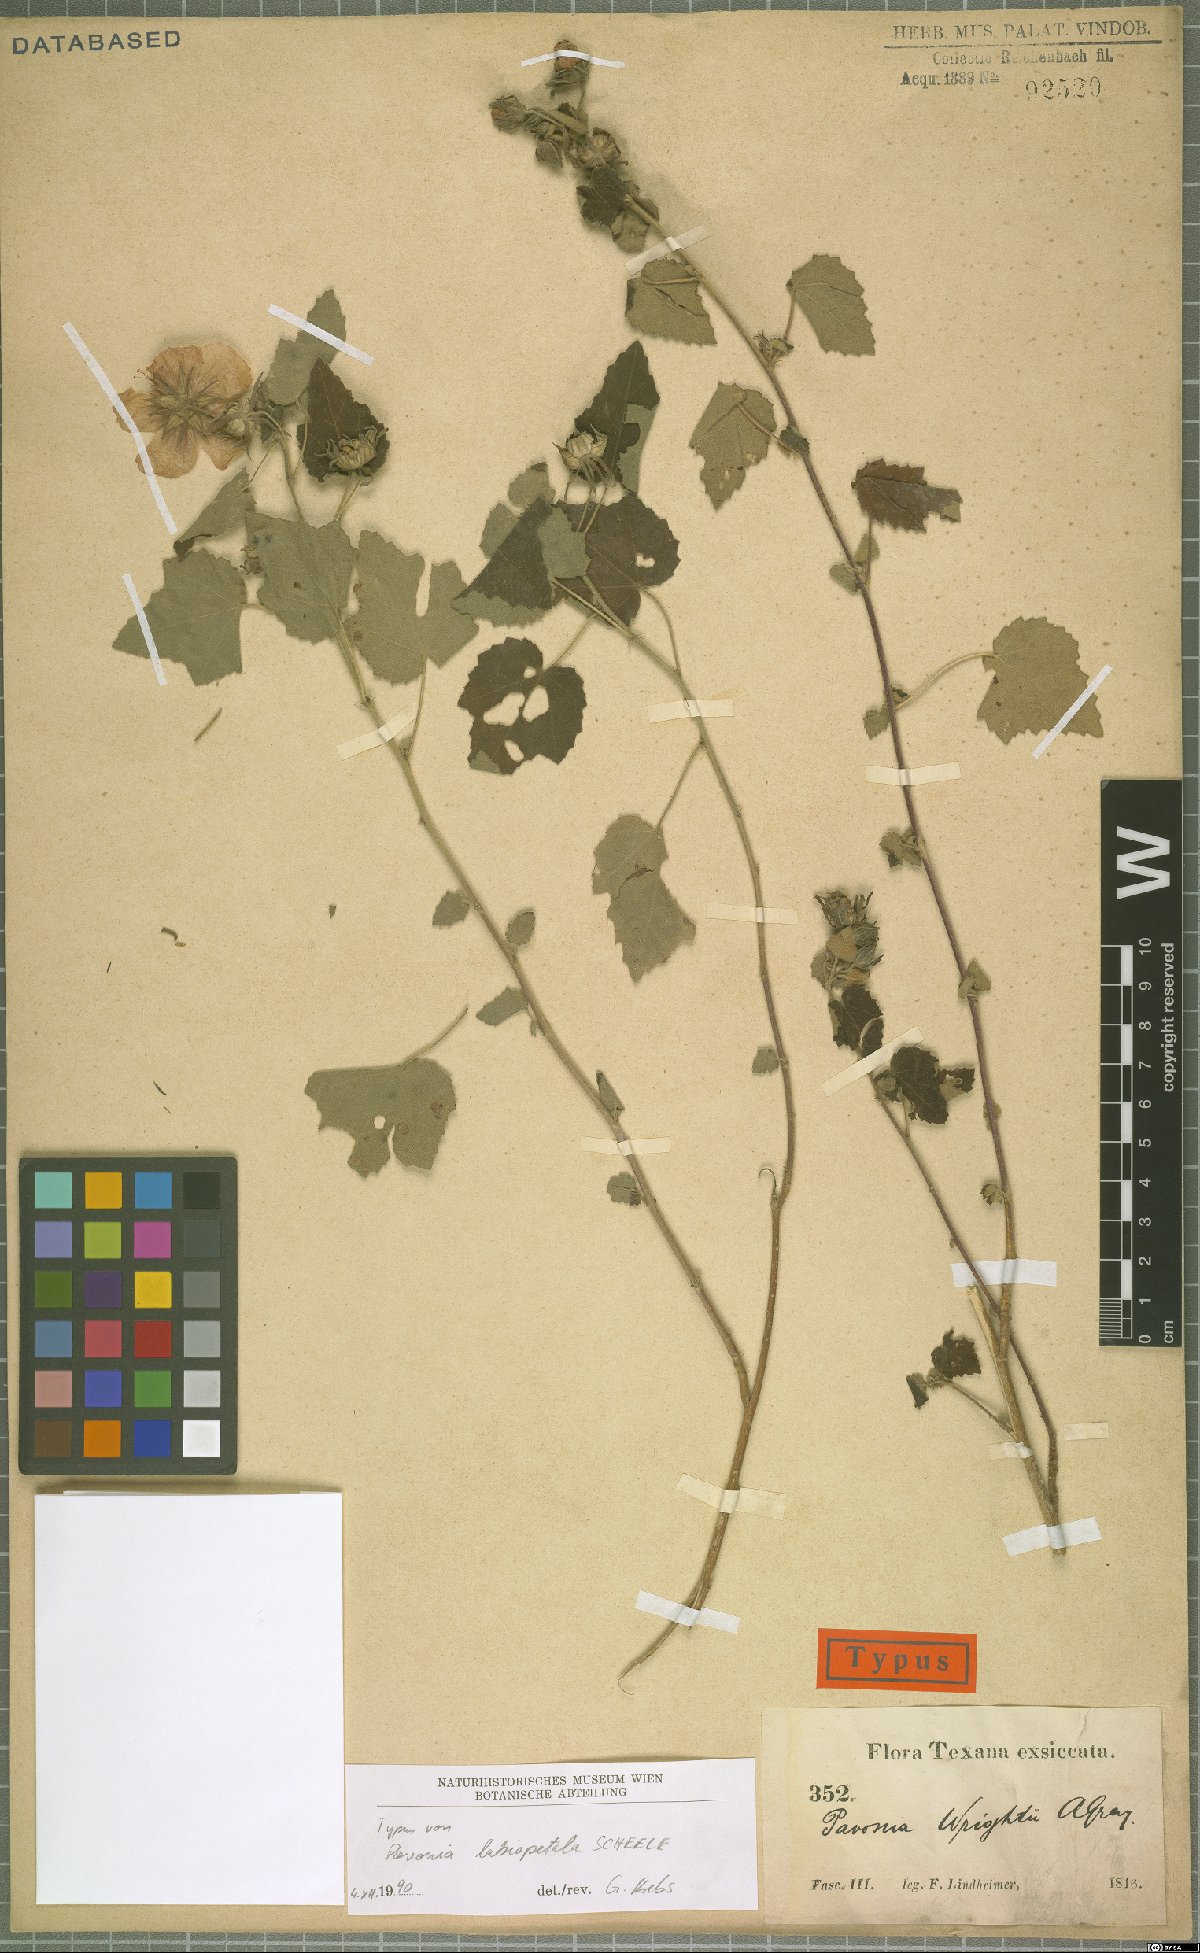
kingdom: Plantae
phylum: Tracheophyta
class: Magnoliopsida
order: Malvales
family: Malvaceae
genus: Pavonia
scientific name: Pavonia lasiopetala
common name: Texas swamp-mallow
